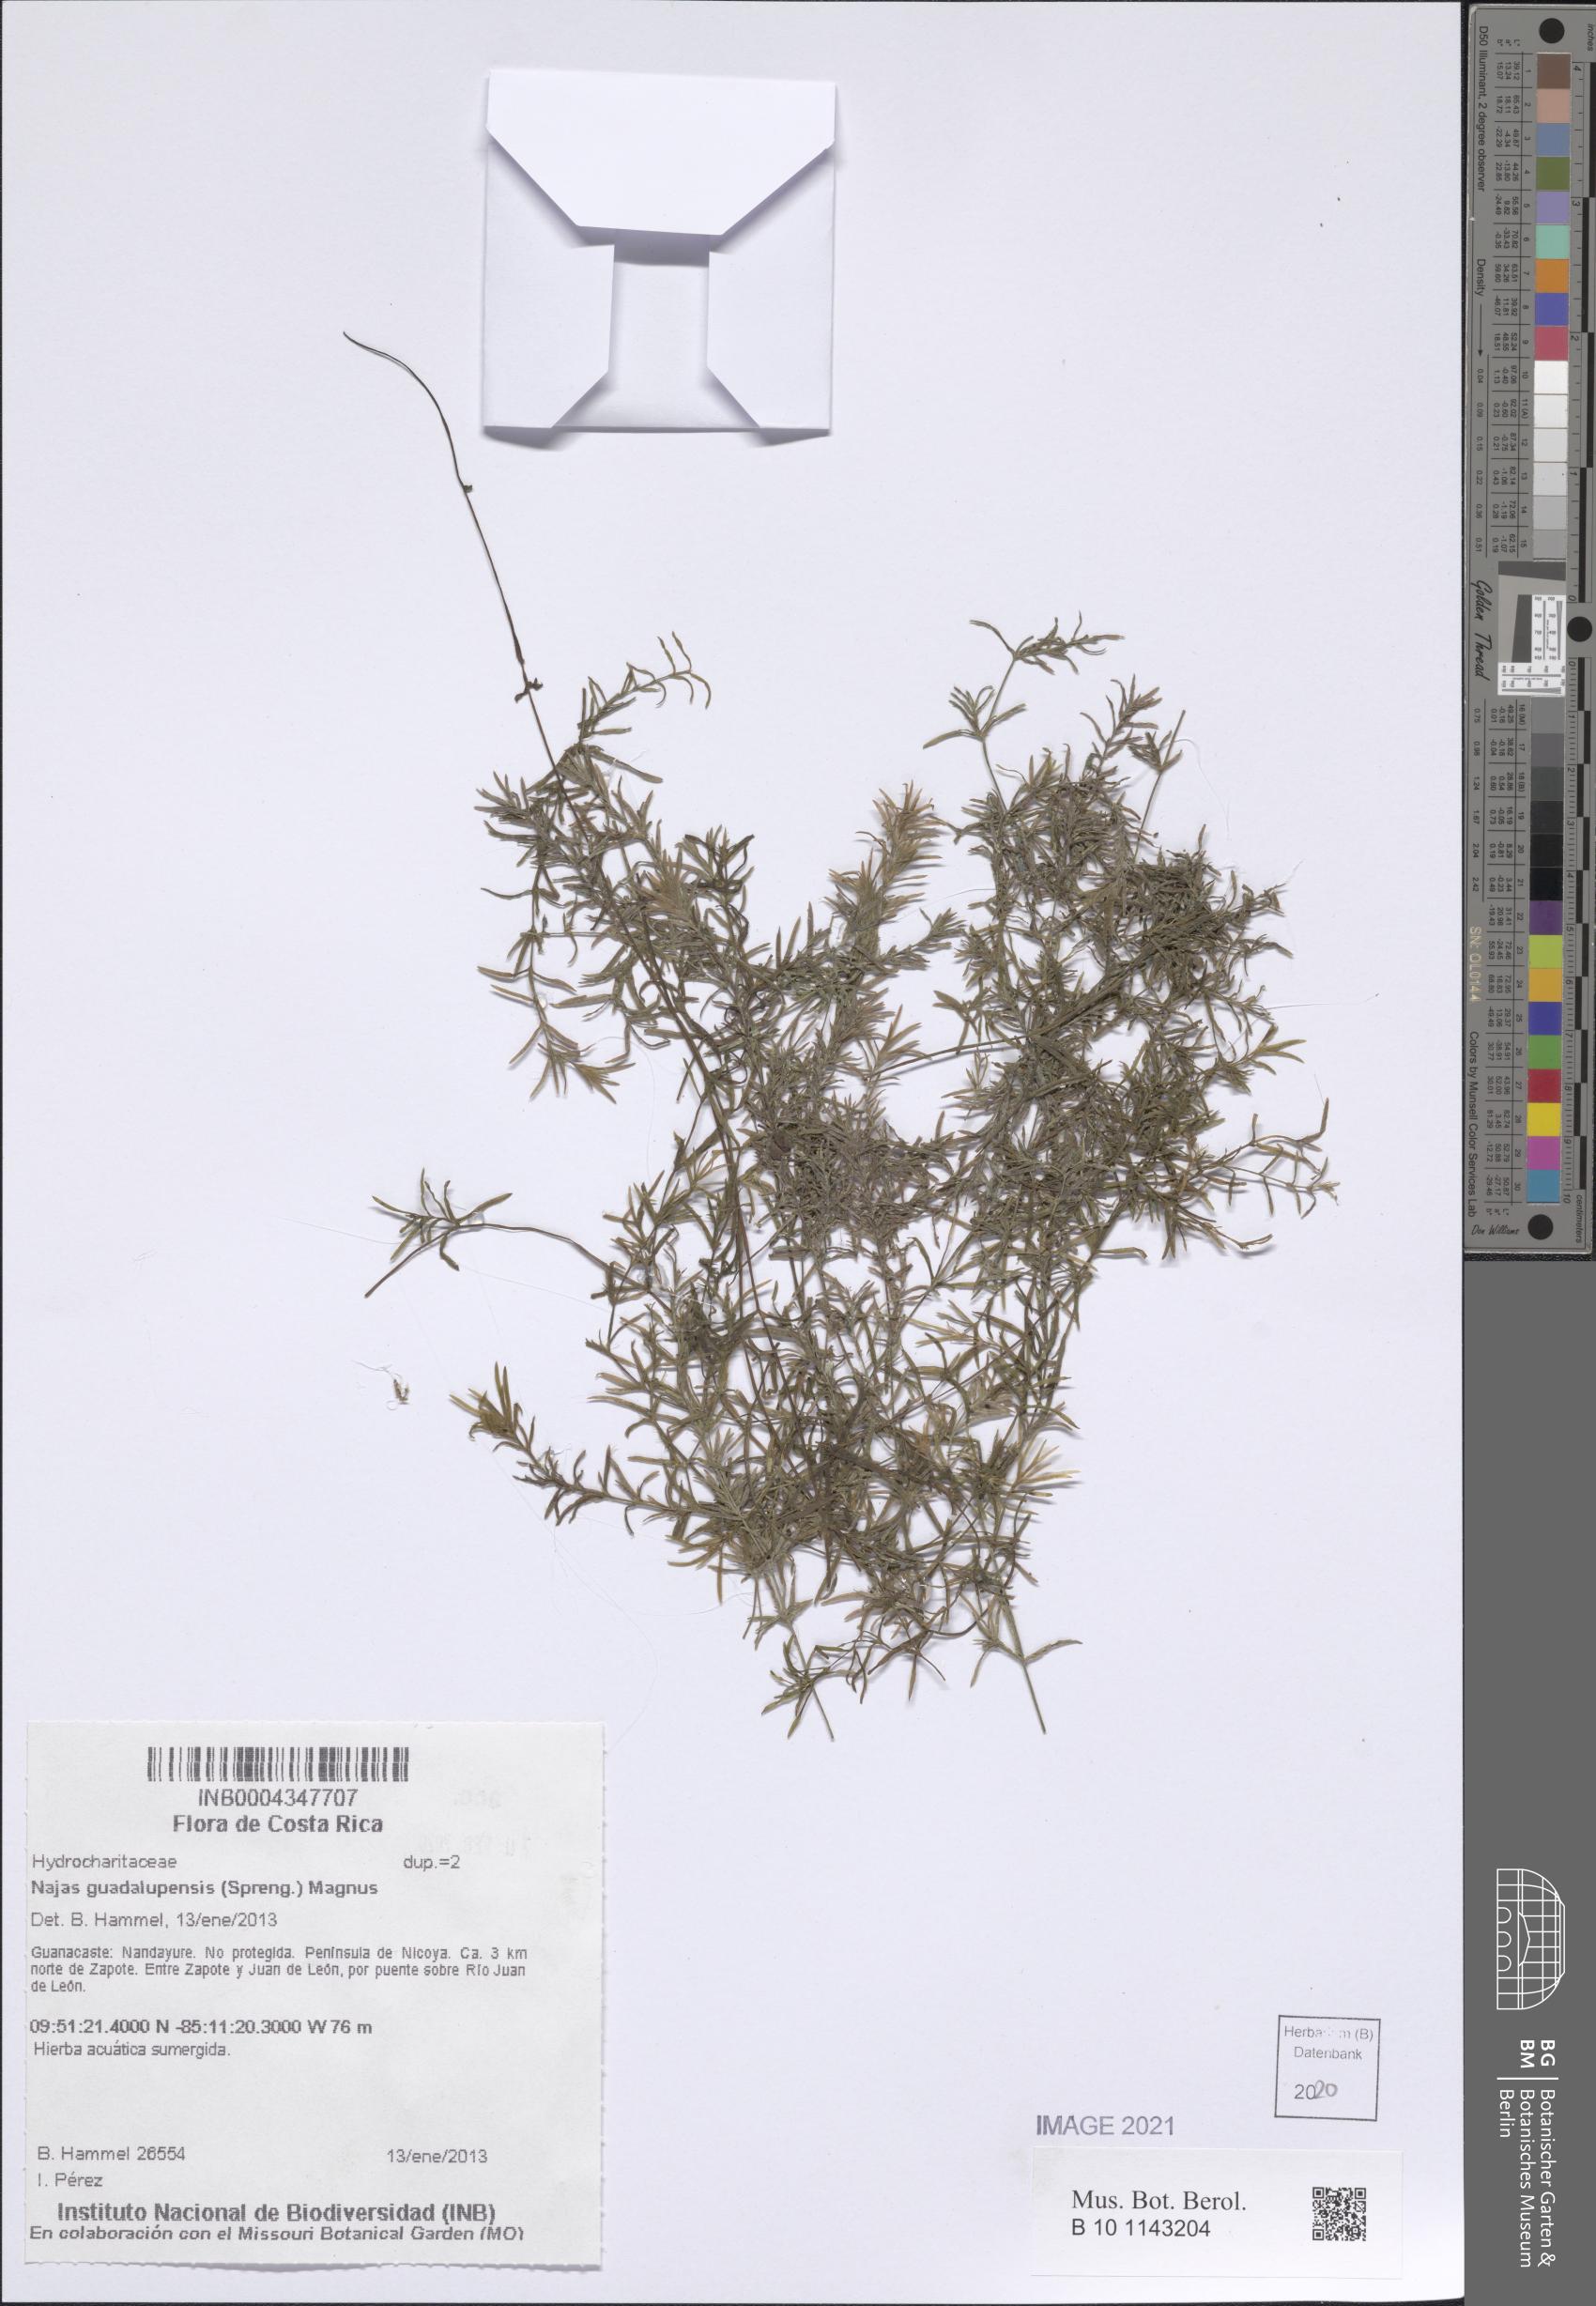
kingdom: Plantae
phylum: Tracheophyta
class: Liliopsida
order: Alismatales
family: Hydrocharitaceae
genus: Najas
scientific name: Najas guadalupensis
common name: Southern naiad
